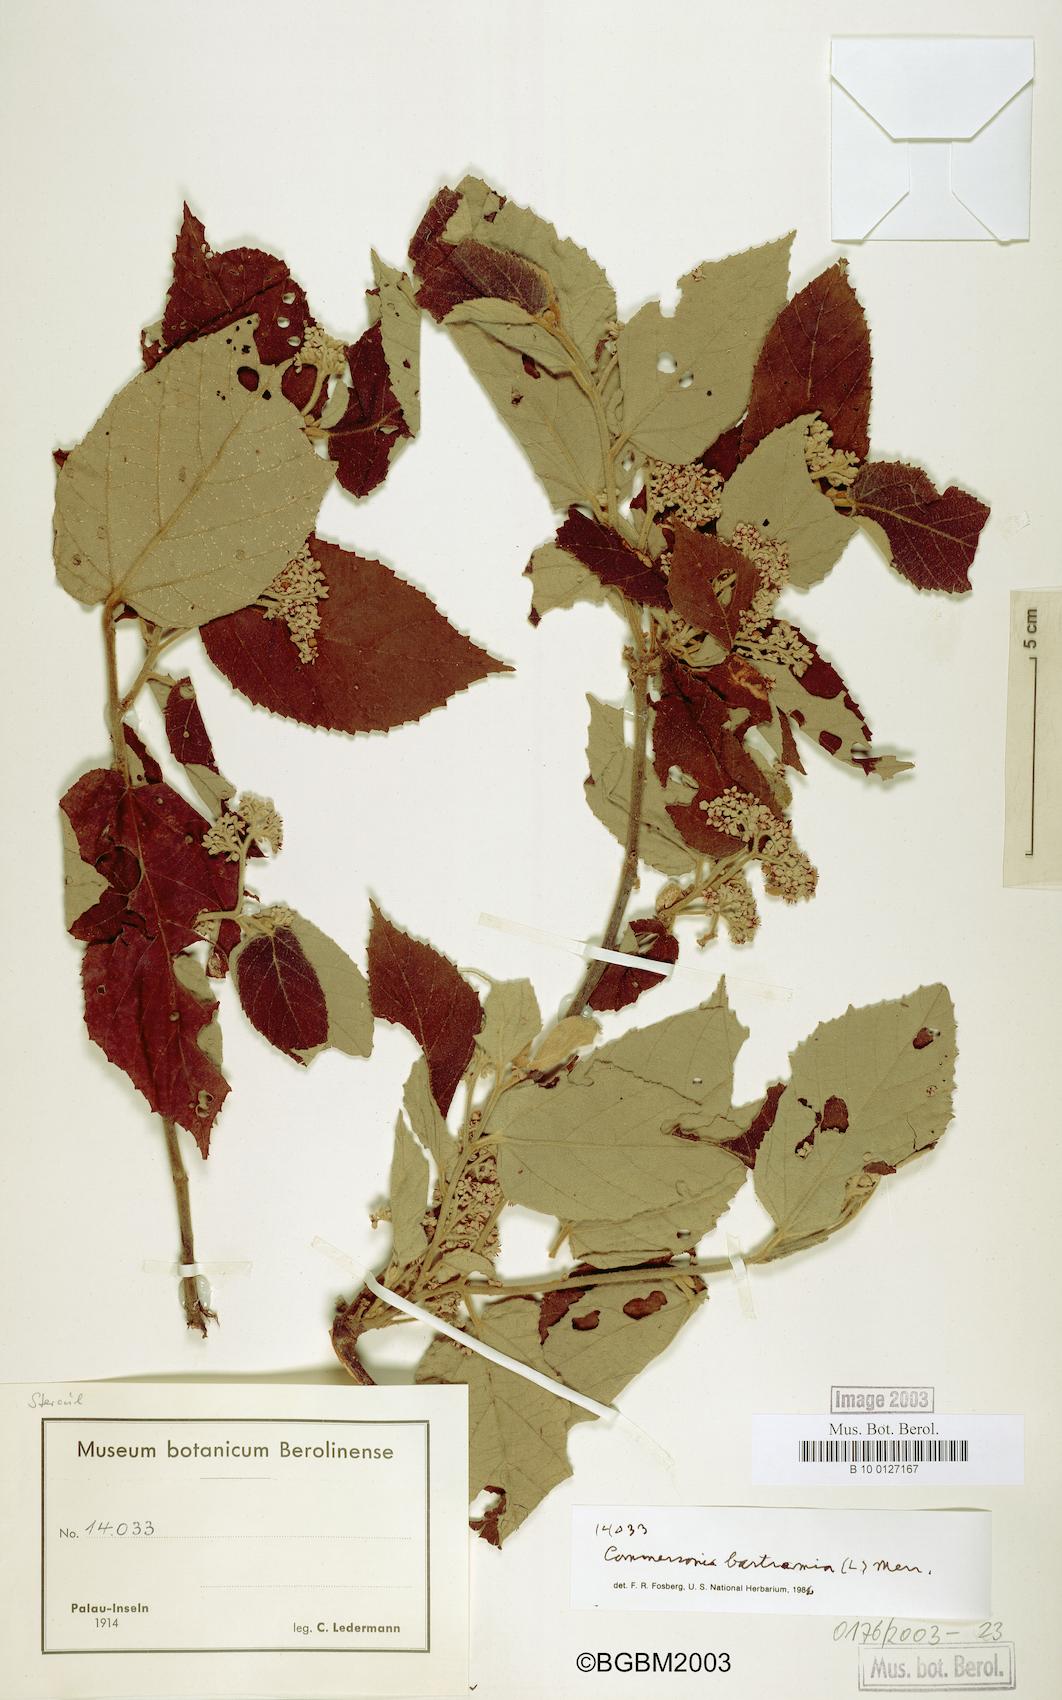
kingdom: Plantae
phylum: Tracheophyta
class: Magnoliopsida
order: Malvales
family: Malvaceae
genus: Commersonia
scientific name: Commersonia bartramia
